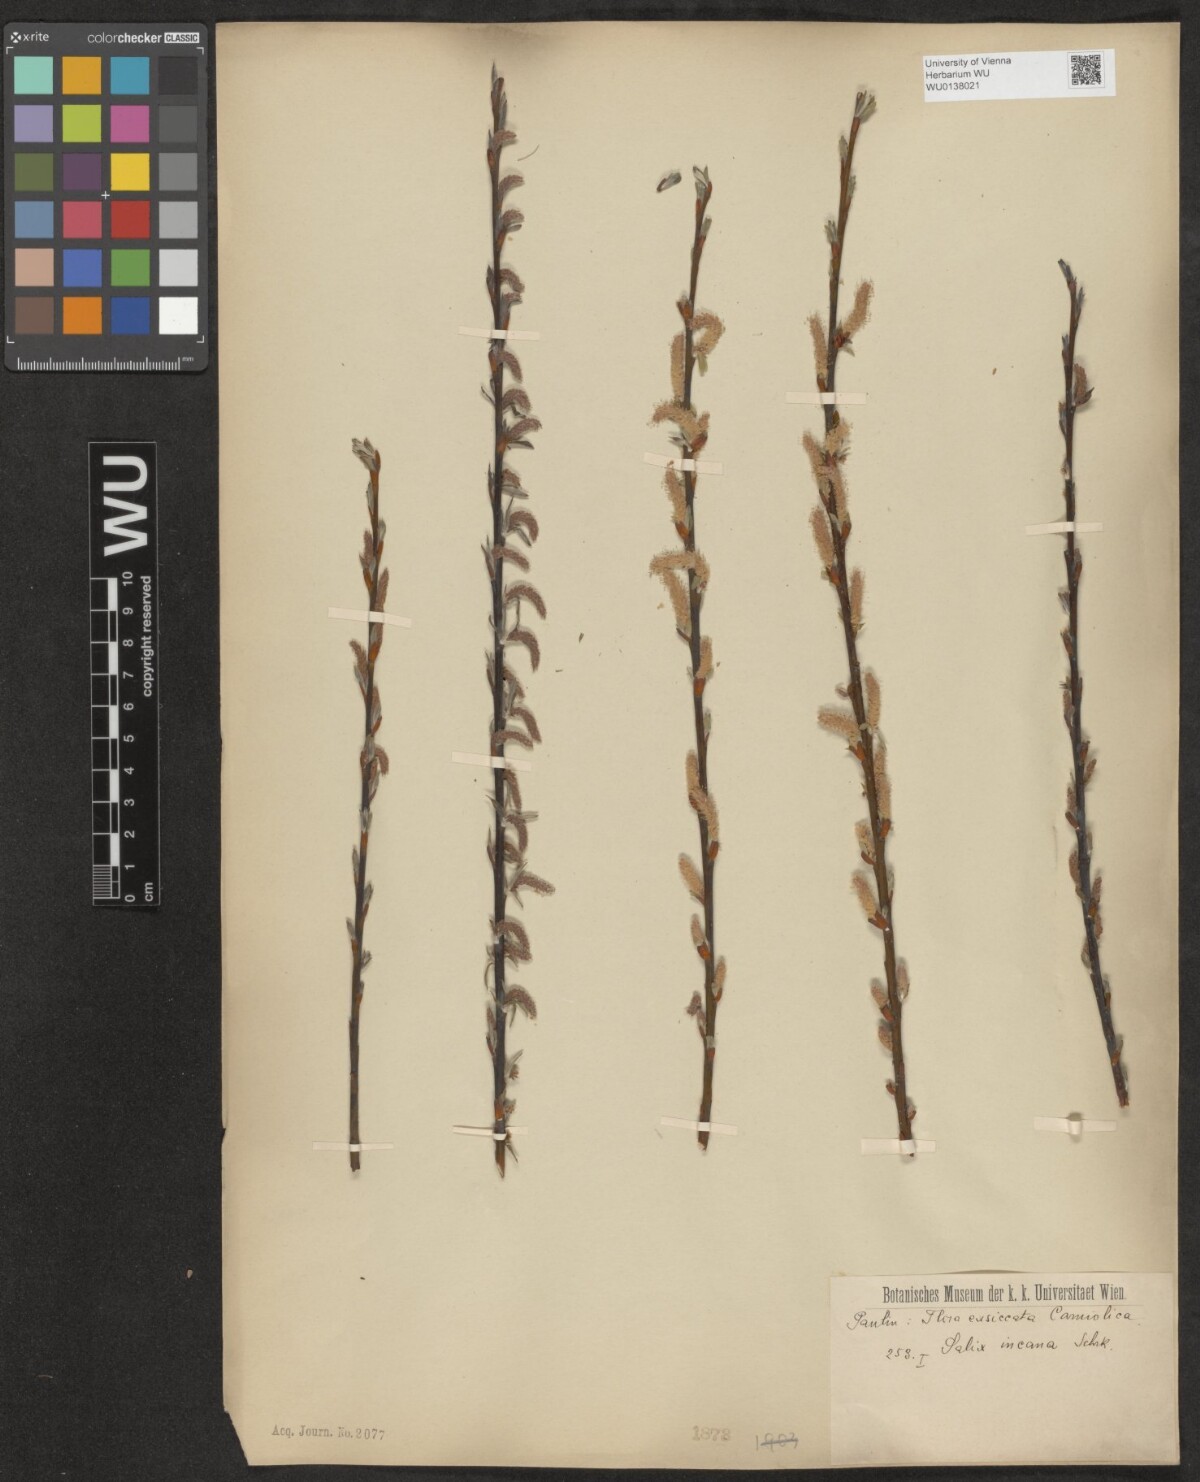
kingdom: Plantae
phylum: Tracheophyta
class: Magnoliopsida
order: Malpighiales
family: Salicaceae
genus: Salix
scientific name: Salix eleagnos
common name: Elaeagnus willow
